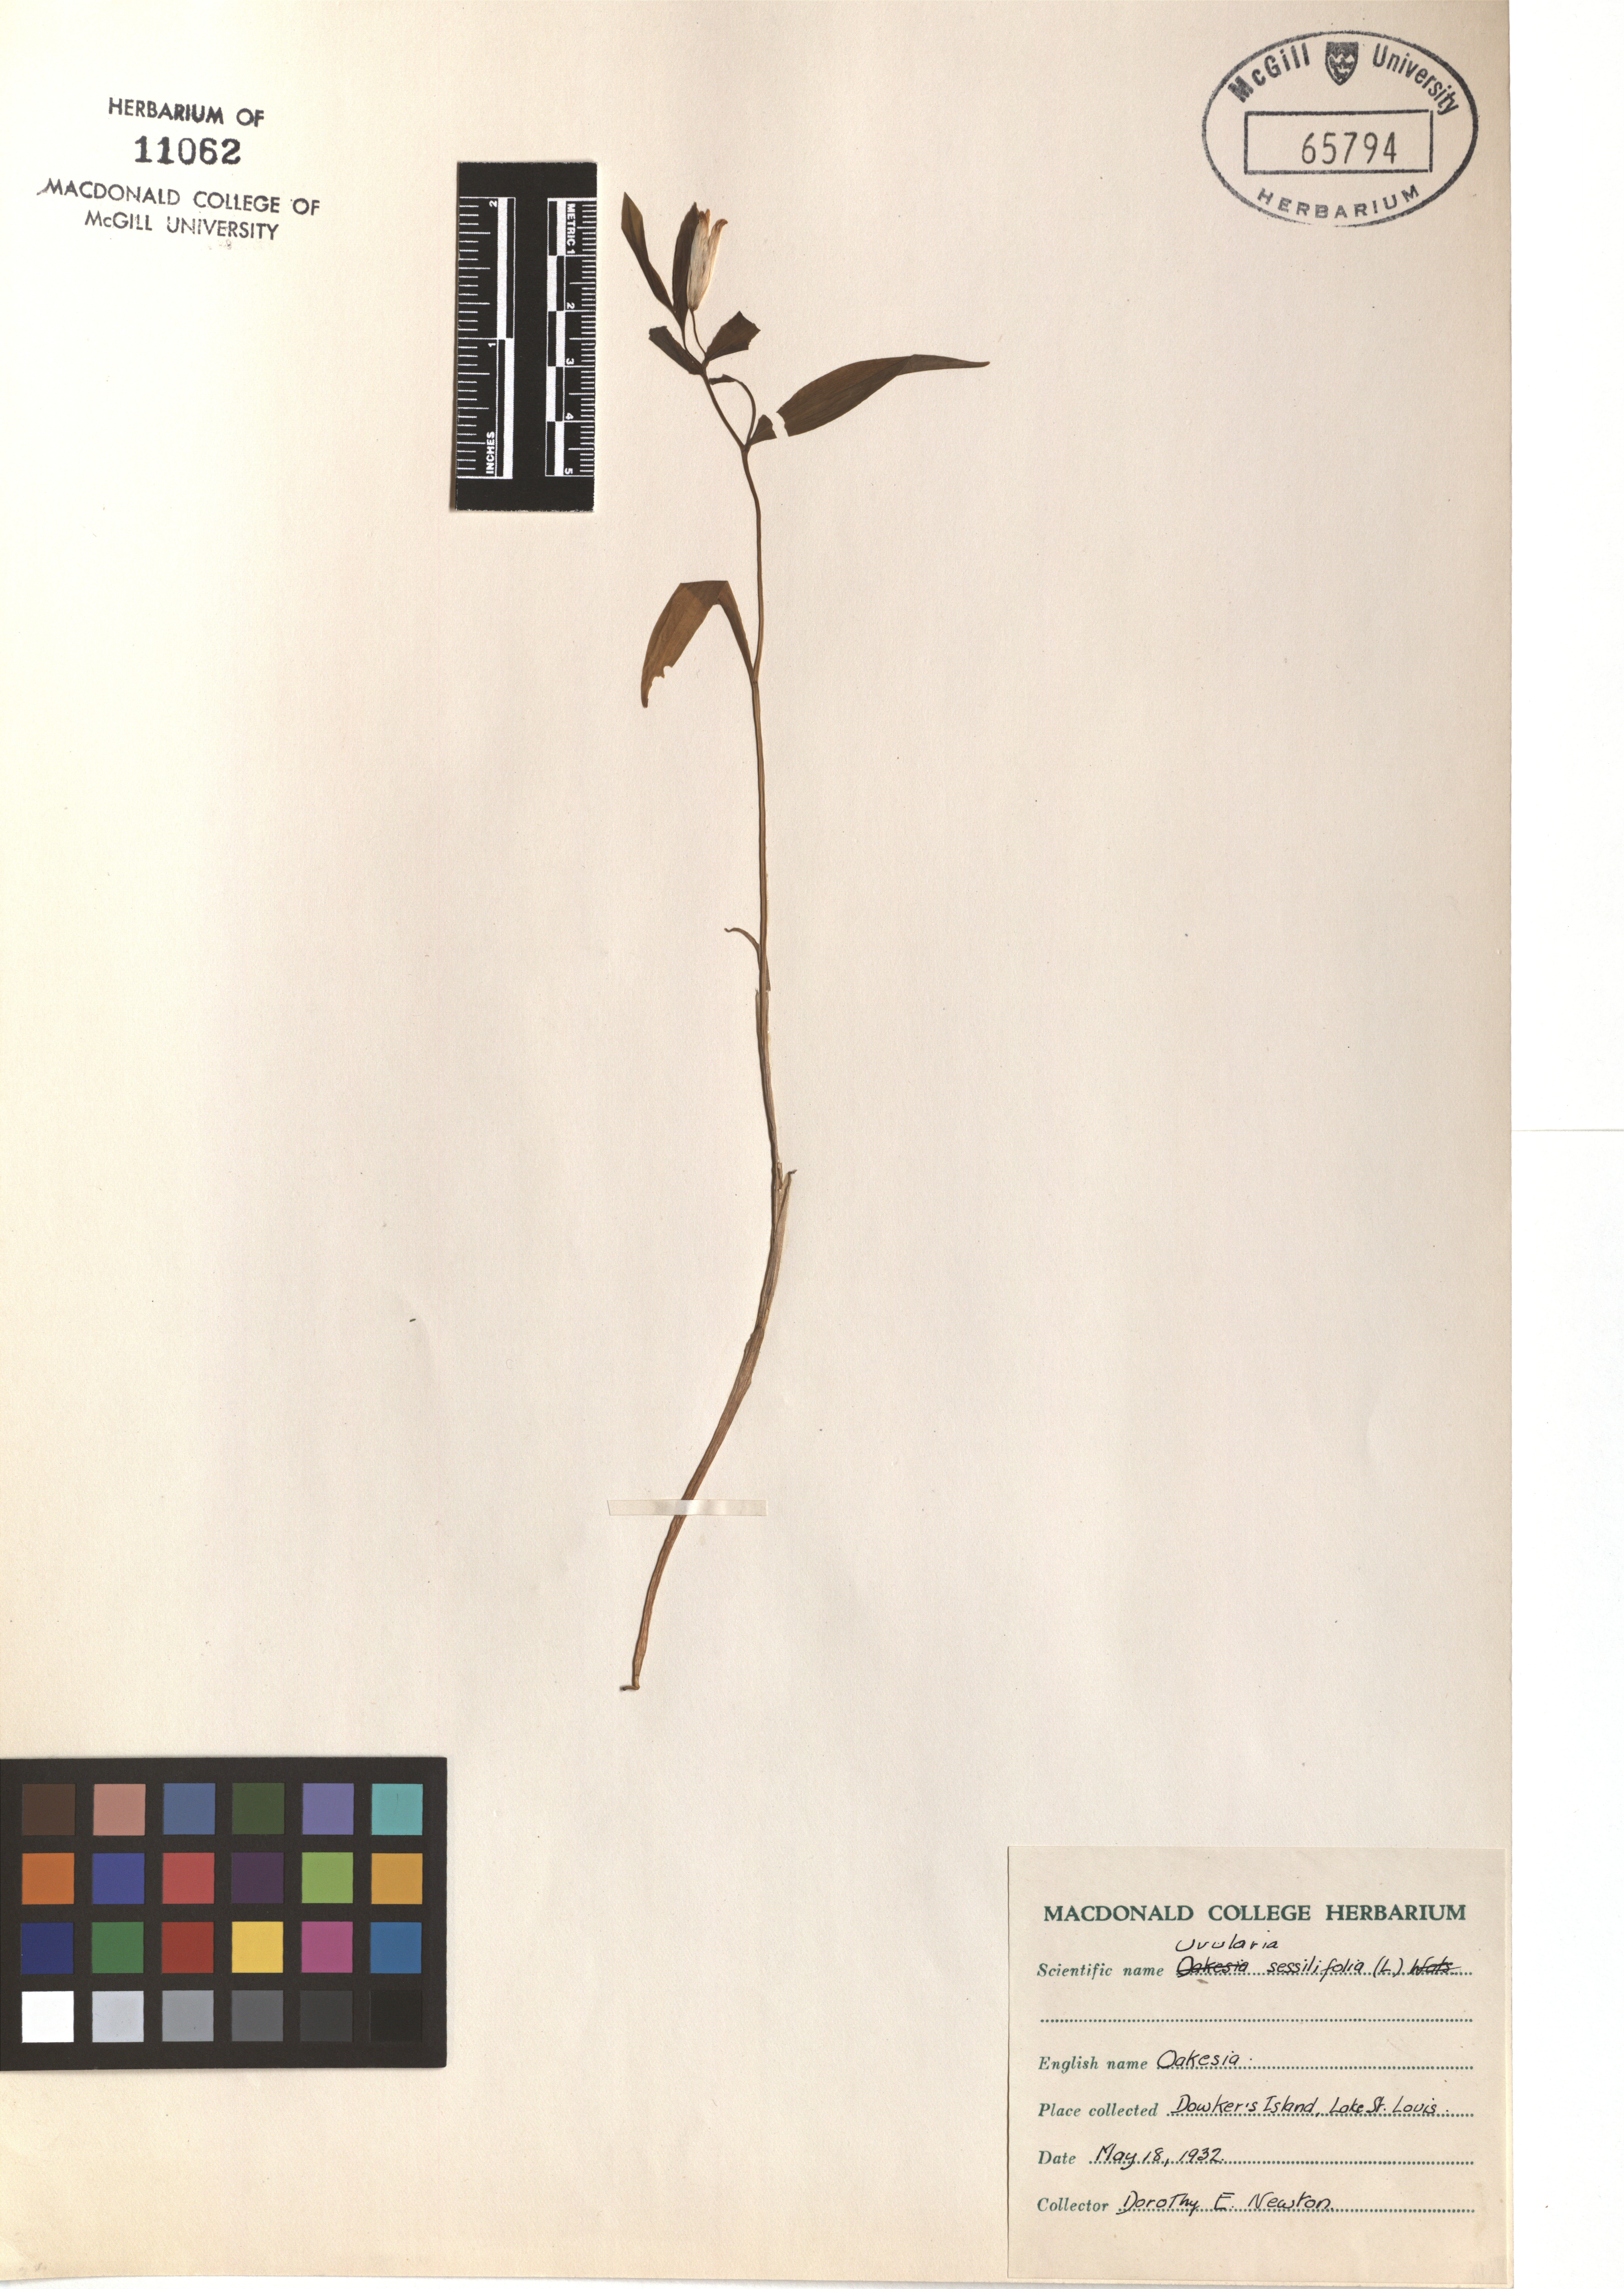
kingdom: Plantae
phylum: Tracheophyta
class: Liliopsida
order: Liliales
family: Colchicaceae
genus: Uvularia
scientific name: Uvularia sessilifolia
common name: Straw-lily
